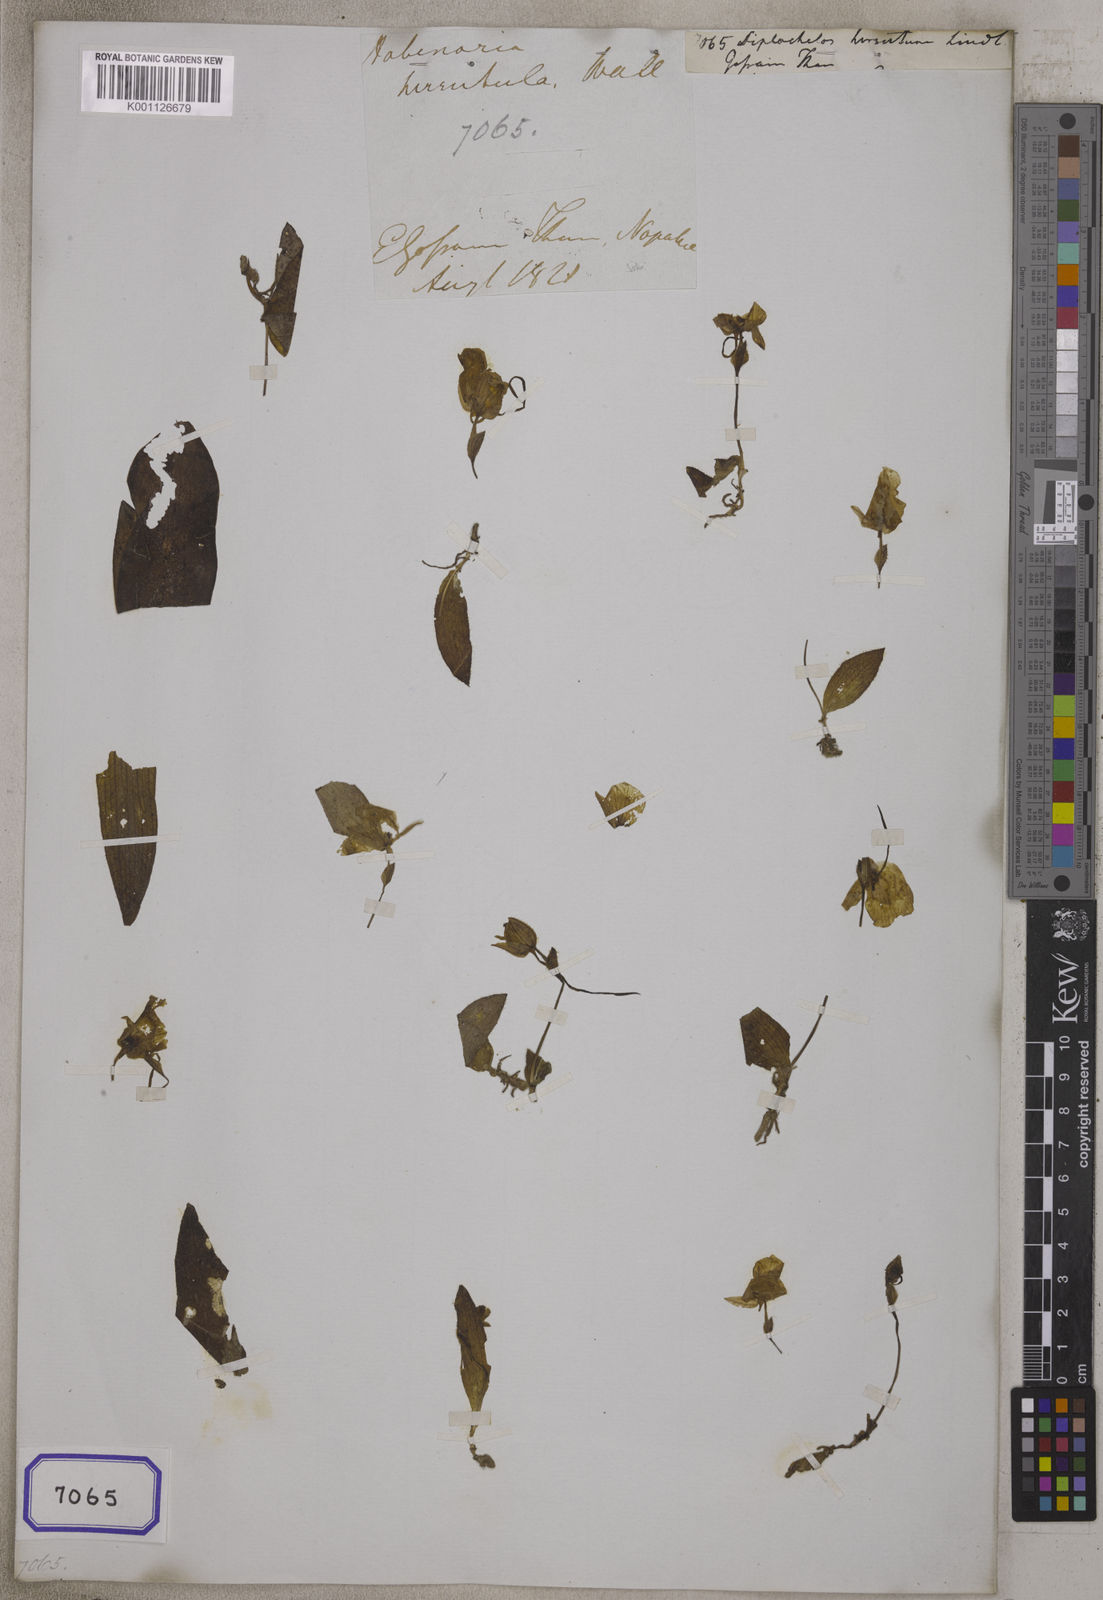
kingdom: Plantae
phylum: Tracheophyta
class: Liliopsida
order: Asparagales
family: Orchidaceae
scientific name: Orchidaceae
